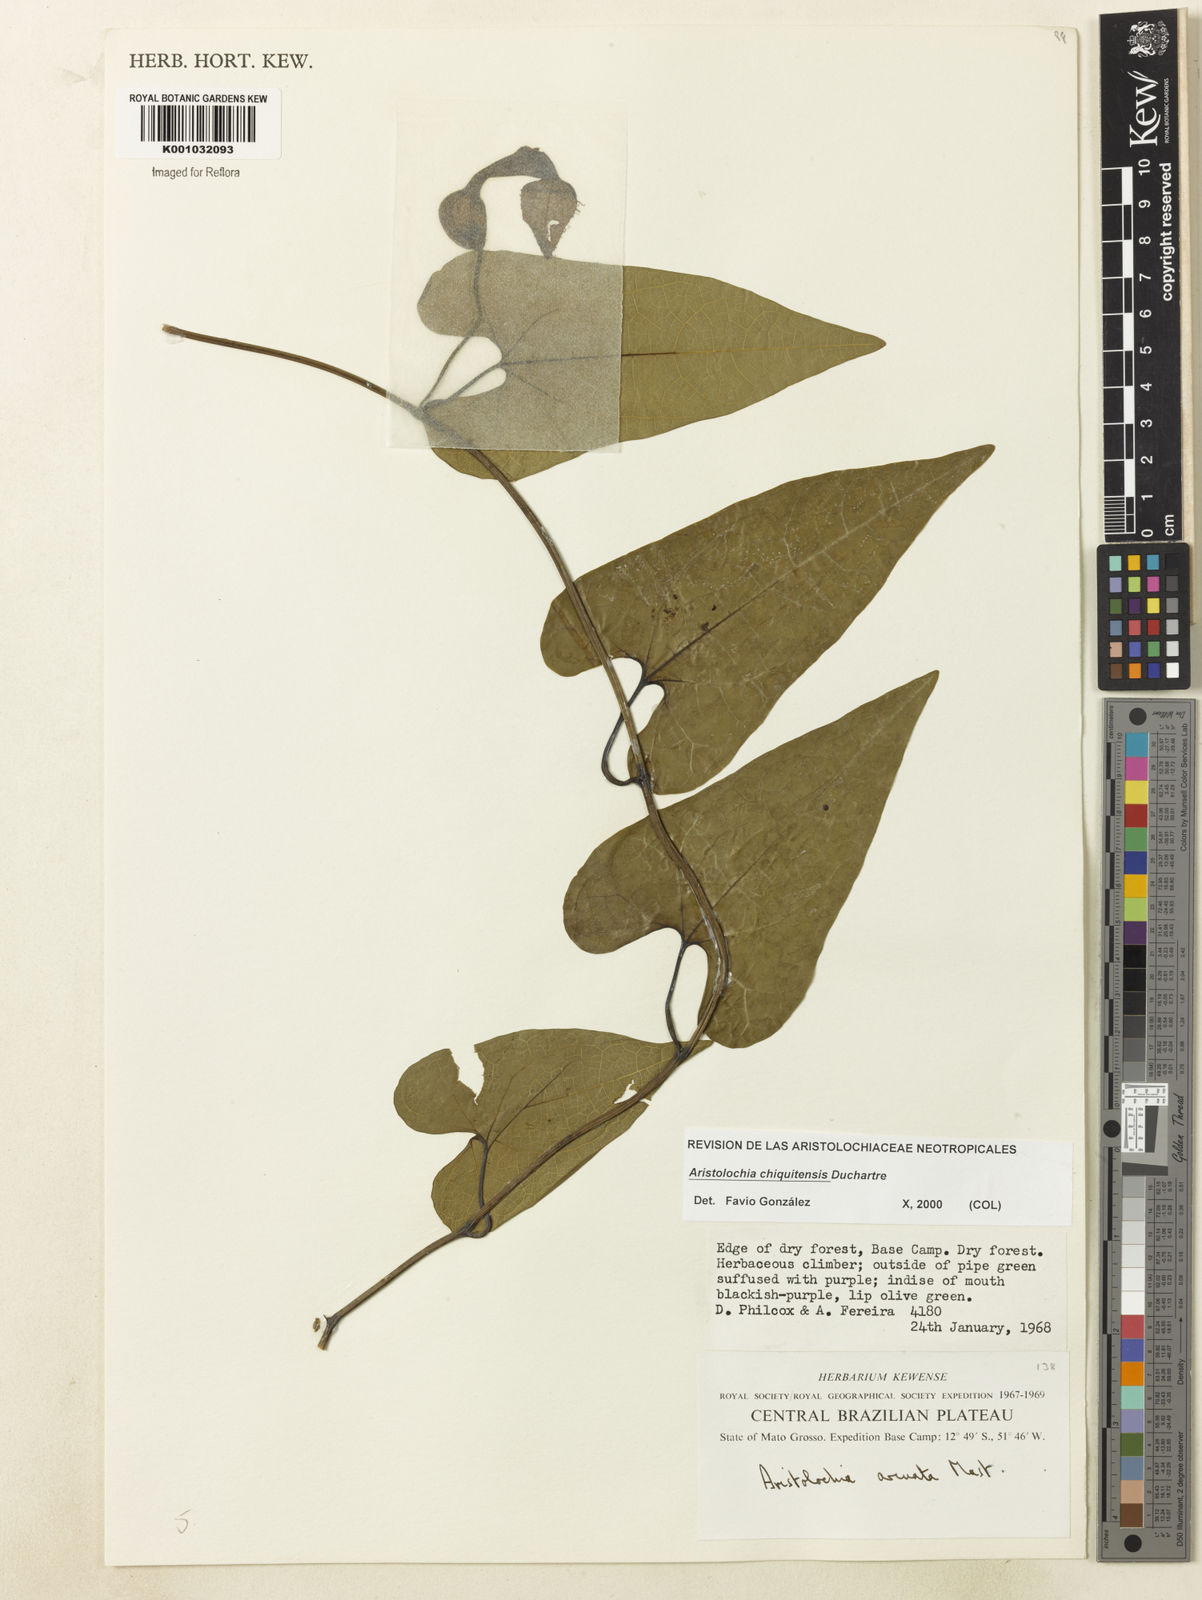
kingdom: Plantae
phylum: Tracheophyta
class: Magnoliopsida
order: Piperales
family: Aristolochiaceae
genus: Aristolochia
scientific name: Aristolochia chiquitensis
